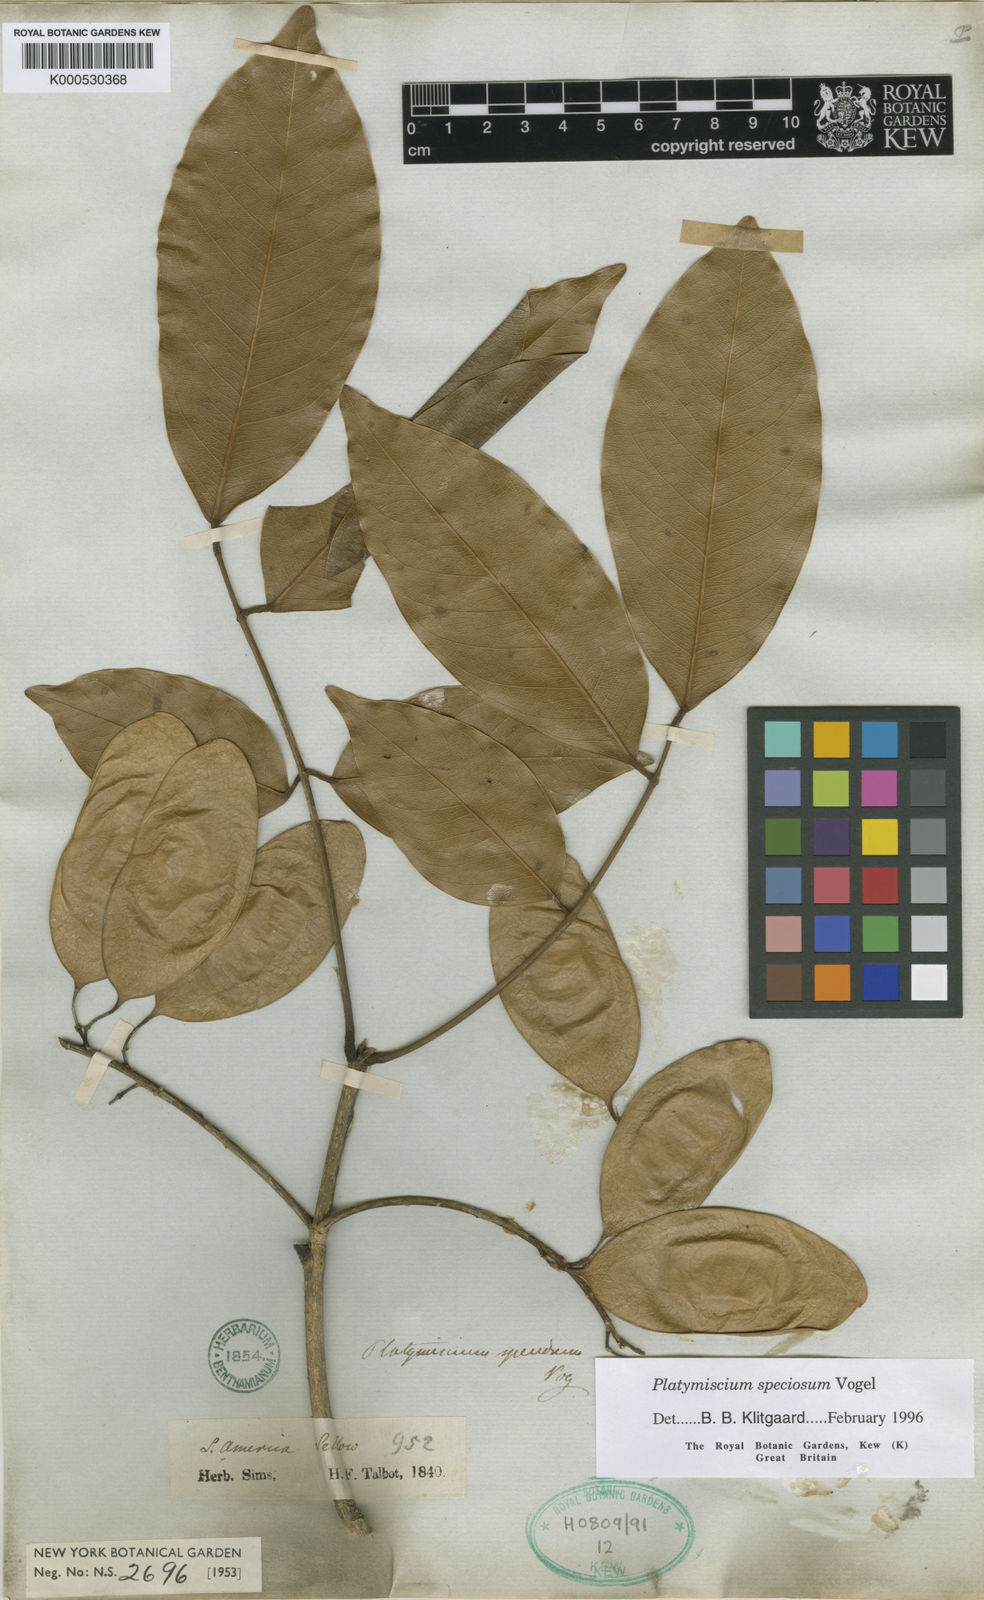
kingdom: Plantae
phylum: Tracheophyta
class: Magnoliopsida
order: Fabales
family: Fabaceae
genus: Platymiscium
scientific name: Platymiscium speciosum
